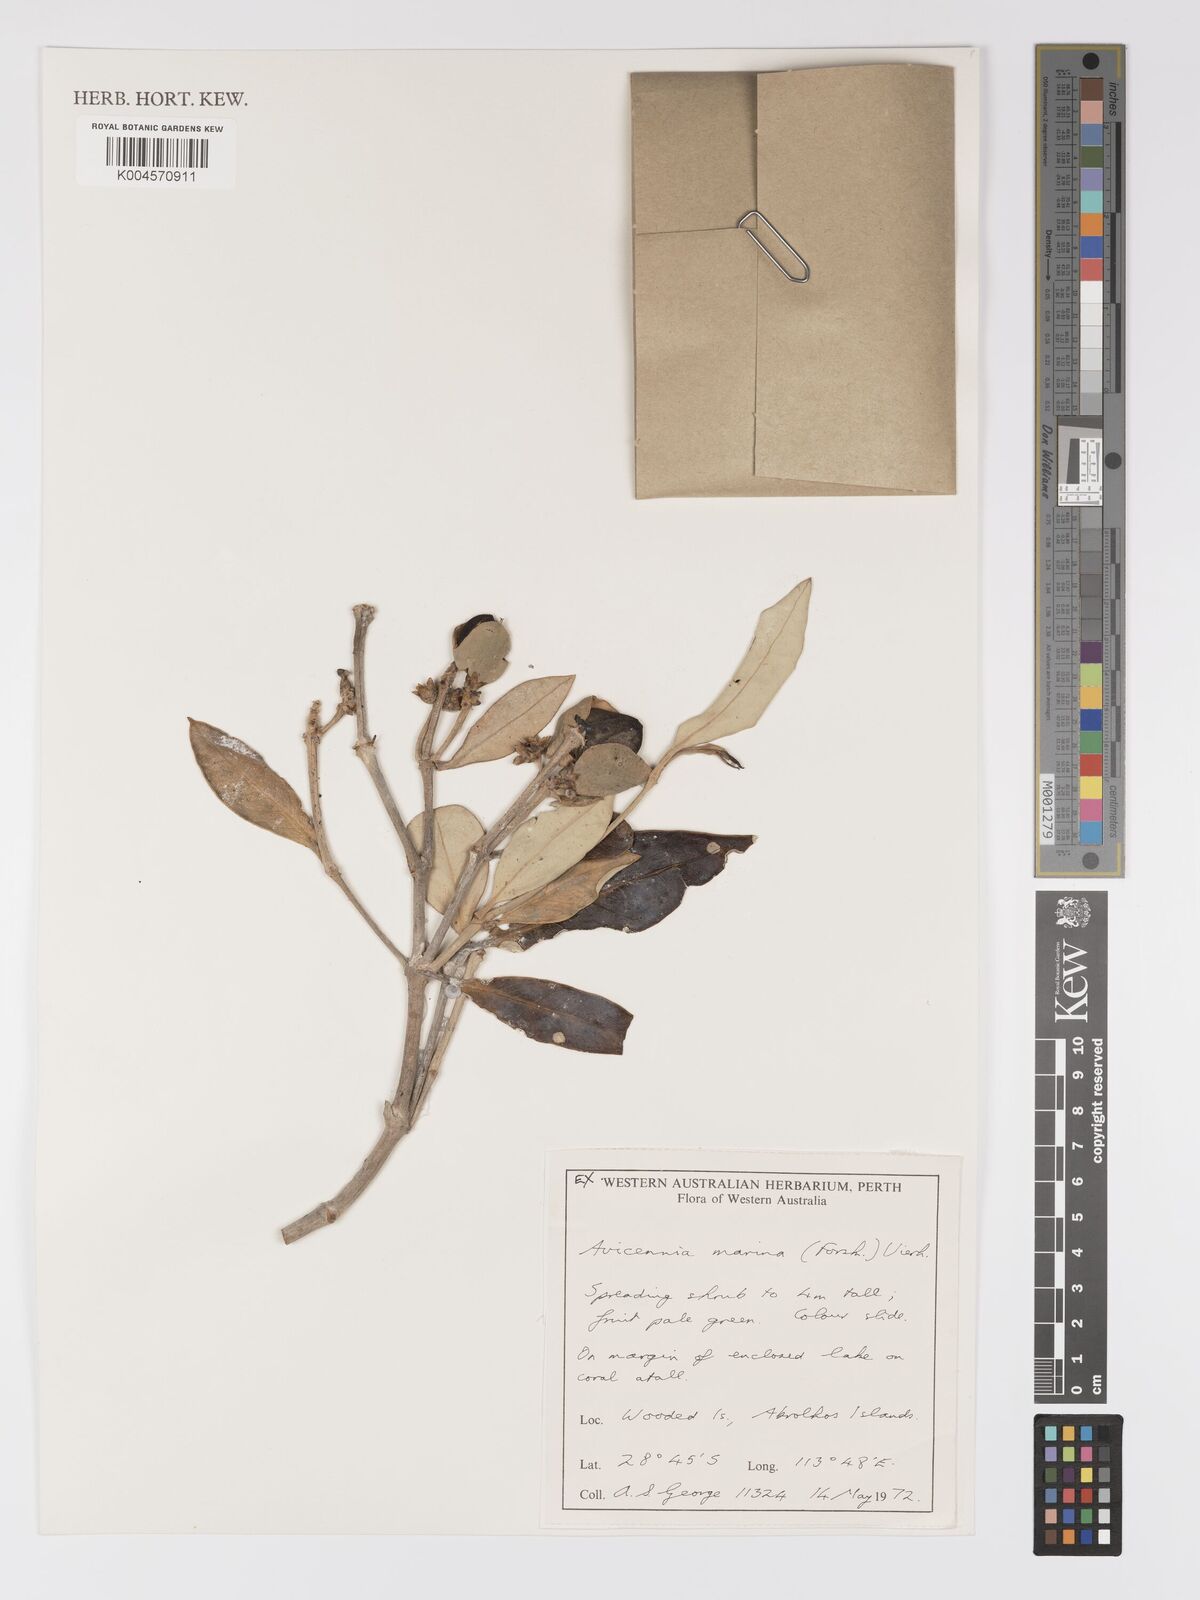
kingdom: Plantae
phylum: Tracheophyta
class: Magnoliopsida
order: Lamiales
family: Acanthaceae
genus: Avicennia
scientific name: Avicennia marina
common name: Gray mangrove
